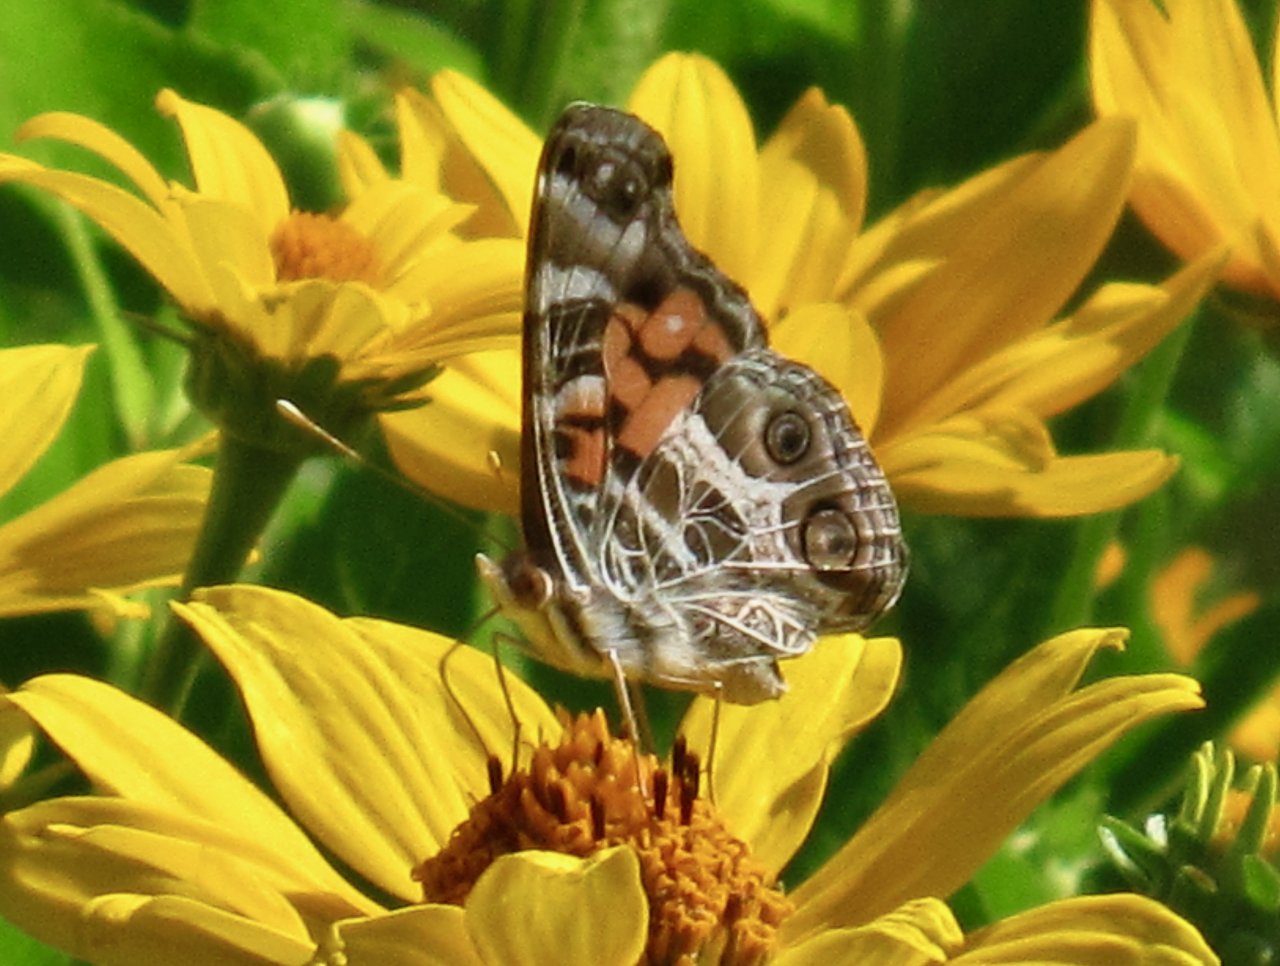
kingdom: Animalia
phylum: Arthropoda
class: Insecta
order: Lepidoptera
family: Nymphalidae
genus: Vanessa
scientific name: Vanessa virginiensis
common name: American Lady
